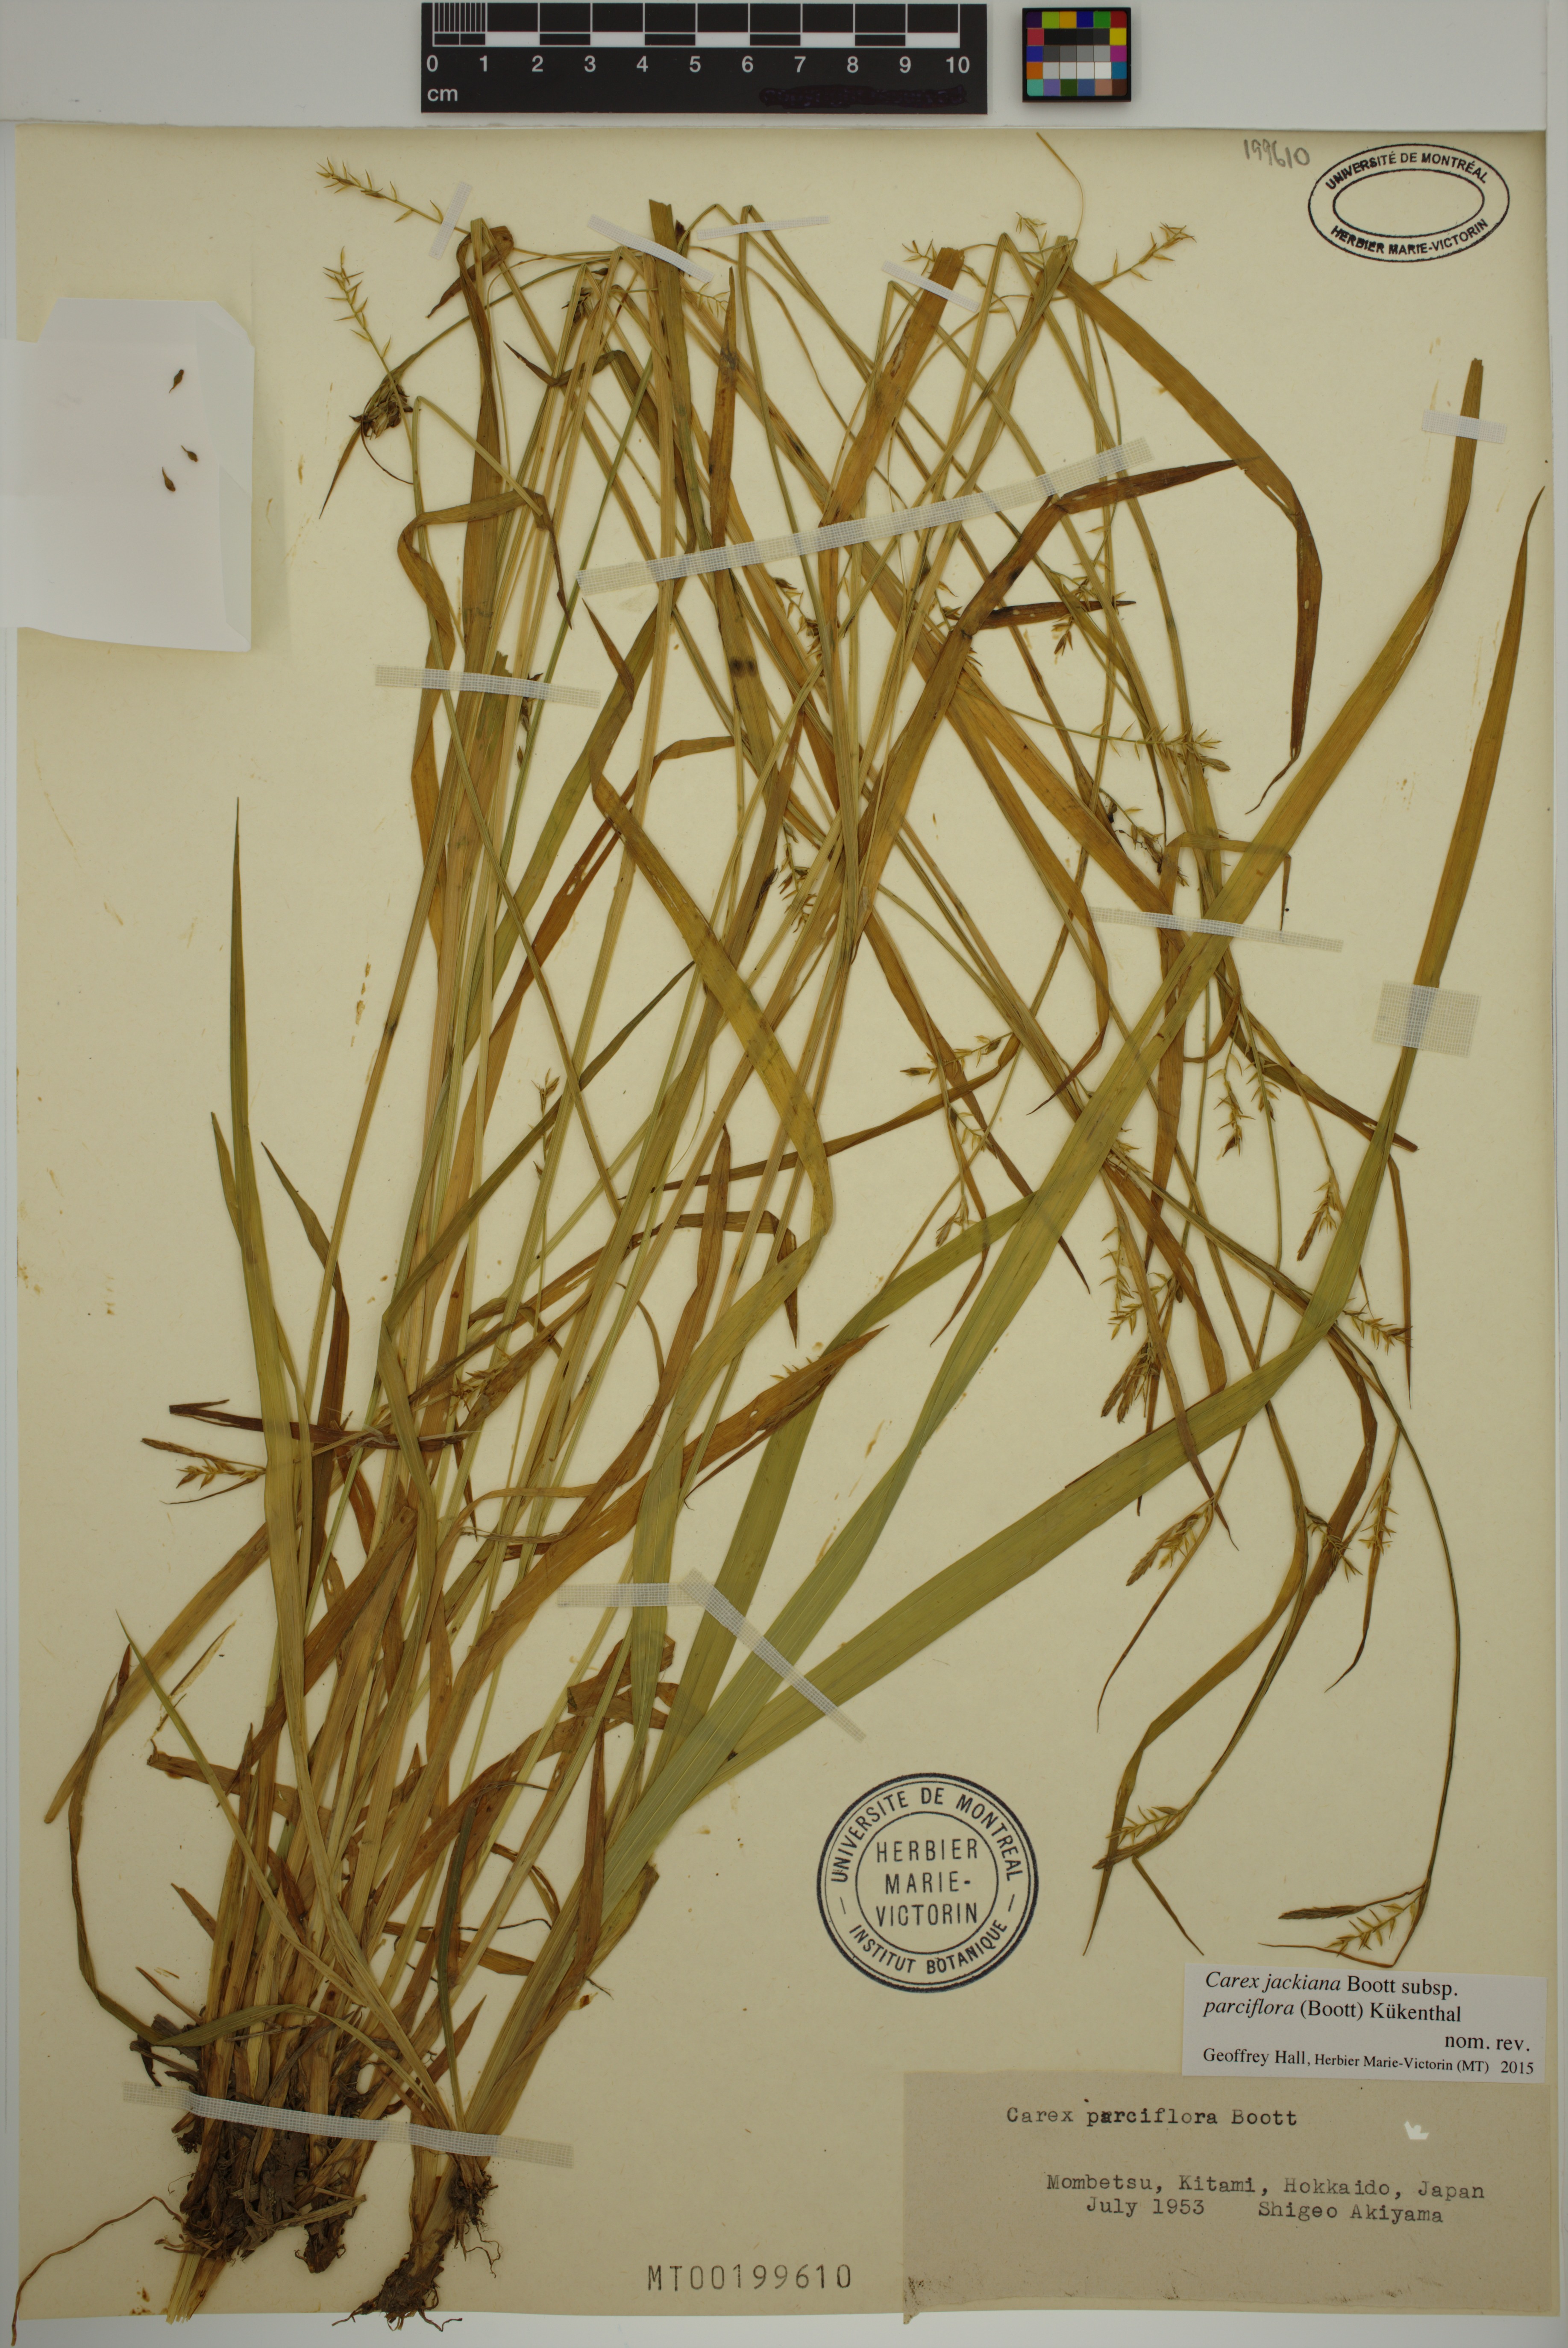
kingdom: Plantae
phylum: Tracheophyta
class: Liliopsida
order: Poales
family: Cyperaceae
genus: Carex
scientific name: Carex parciflora
